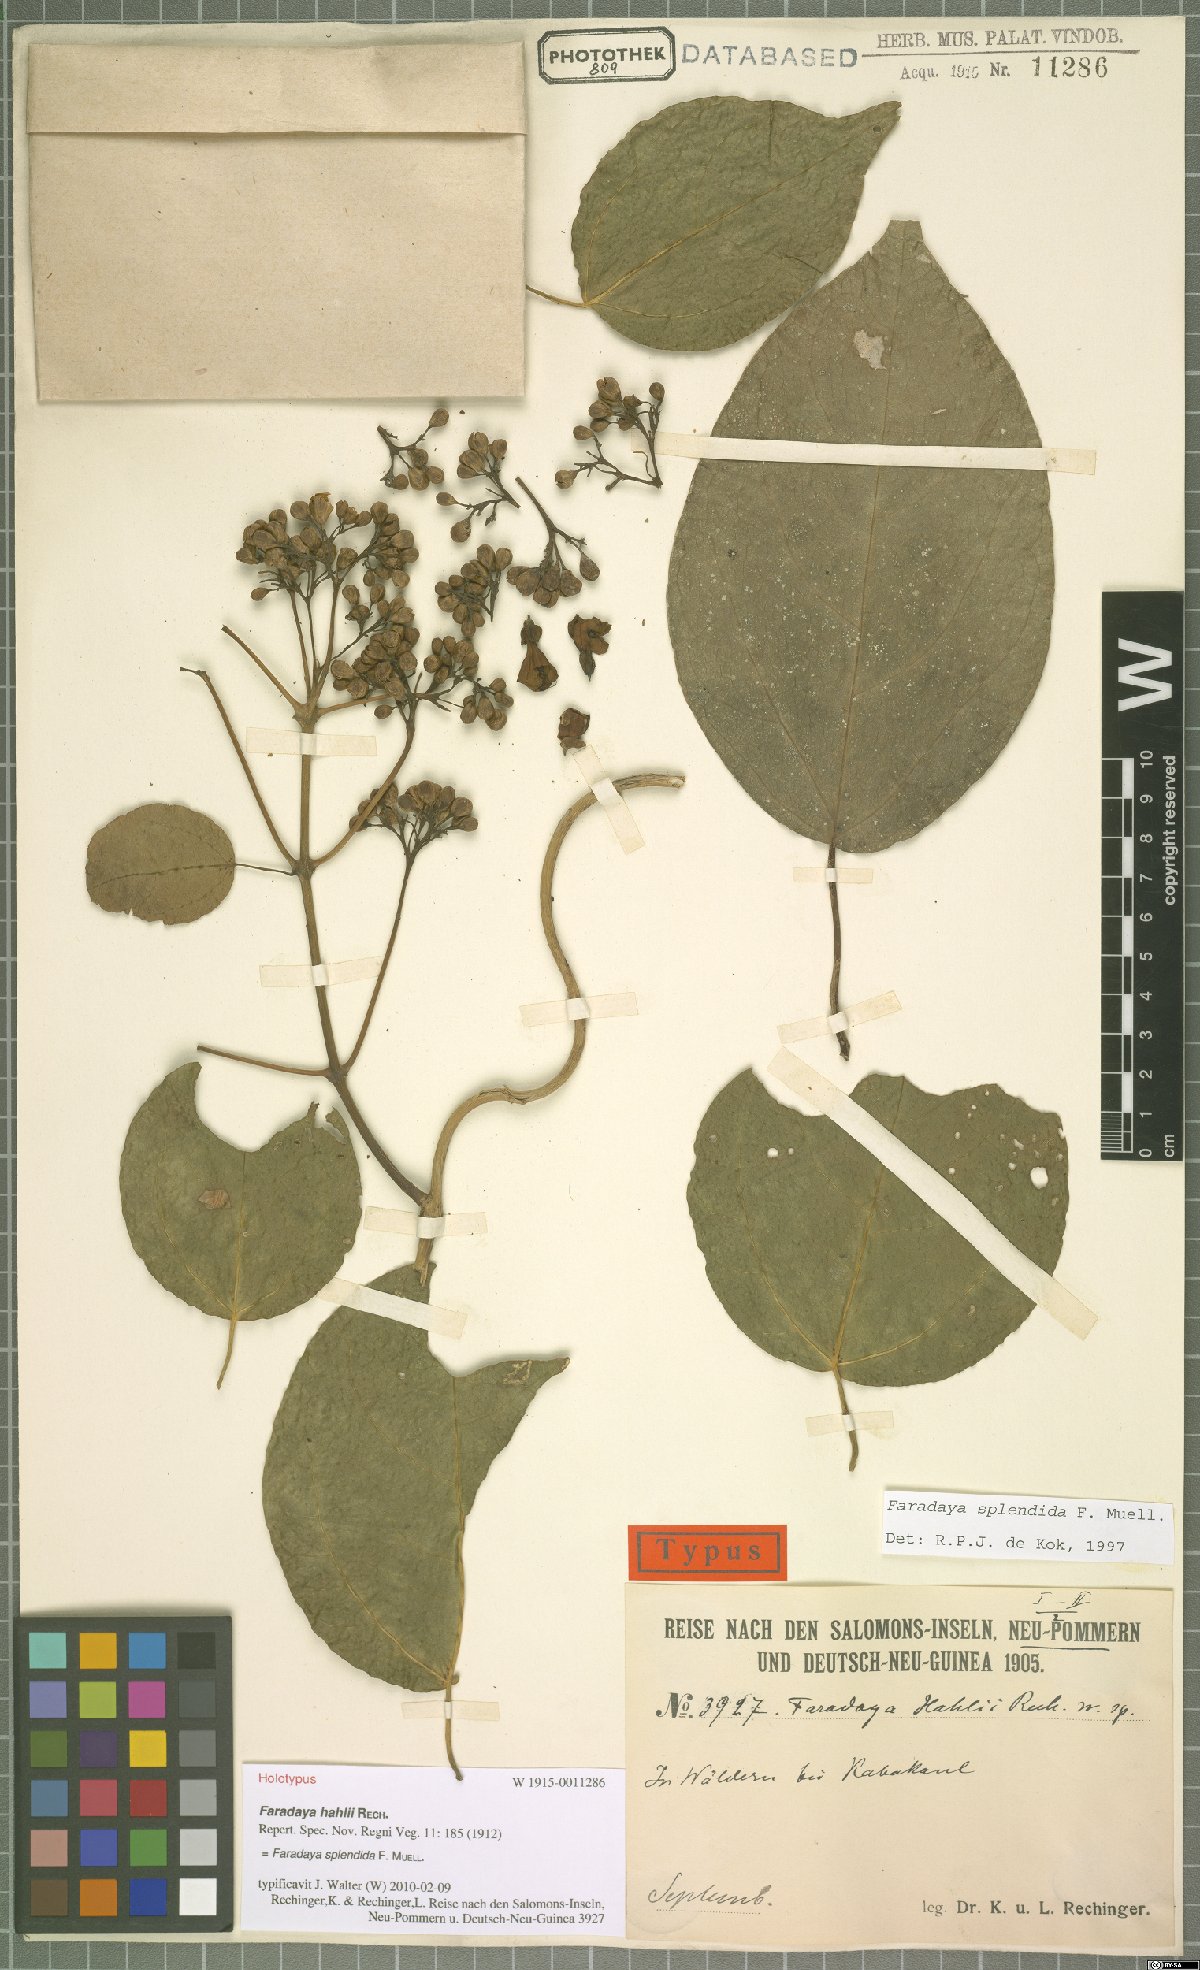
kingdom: Plantae
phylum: Tracheophyta
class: Magnoliopsida
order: Lamiales
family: Lamiaceae
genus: Oxera
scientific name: Oxera splendida
